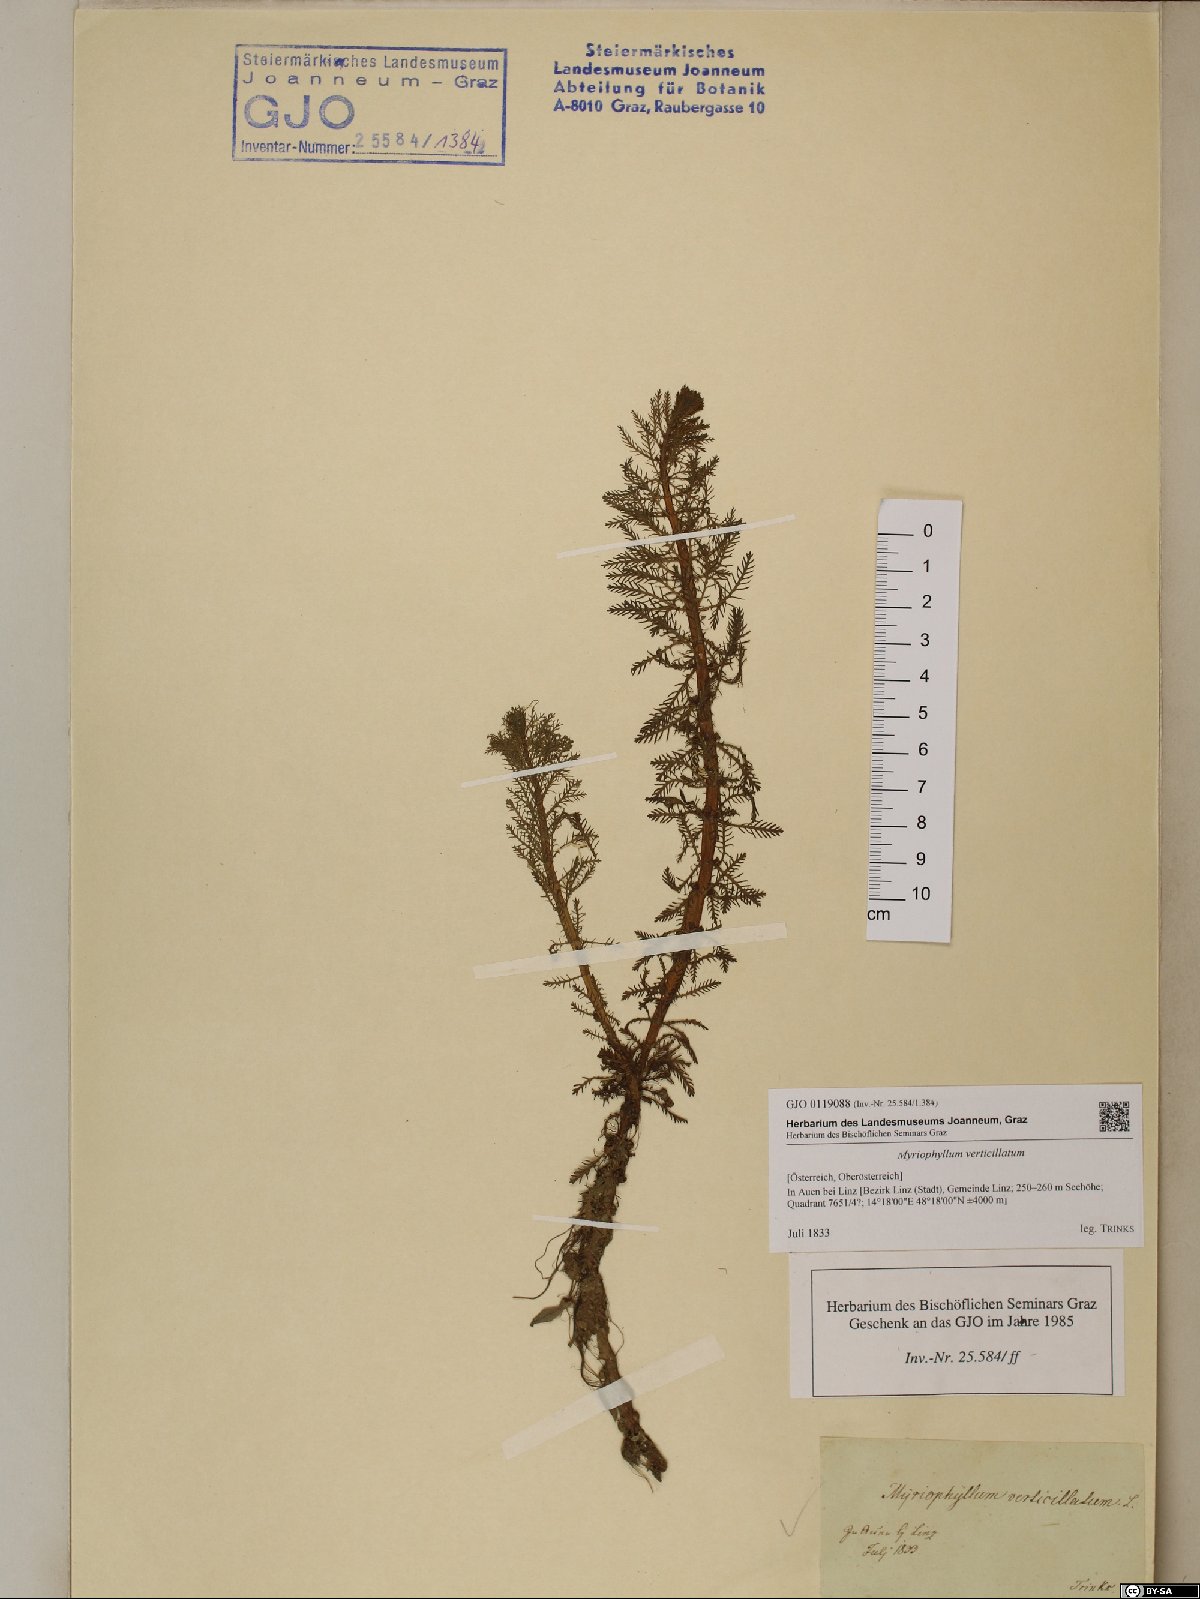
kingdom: Plantae
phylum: Tracheophyta
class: Magnoliopsida
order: Saxifragales
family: Haloragaceae
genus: Myriophyllum
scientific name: Myriophyllum verticillatum
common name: Whorled water-milfoil
